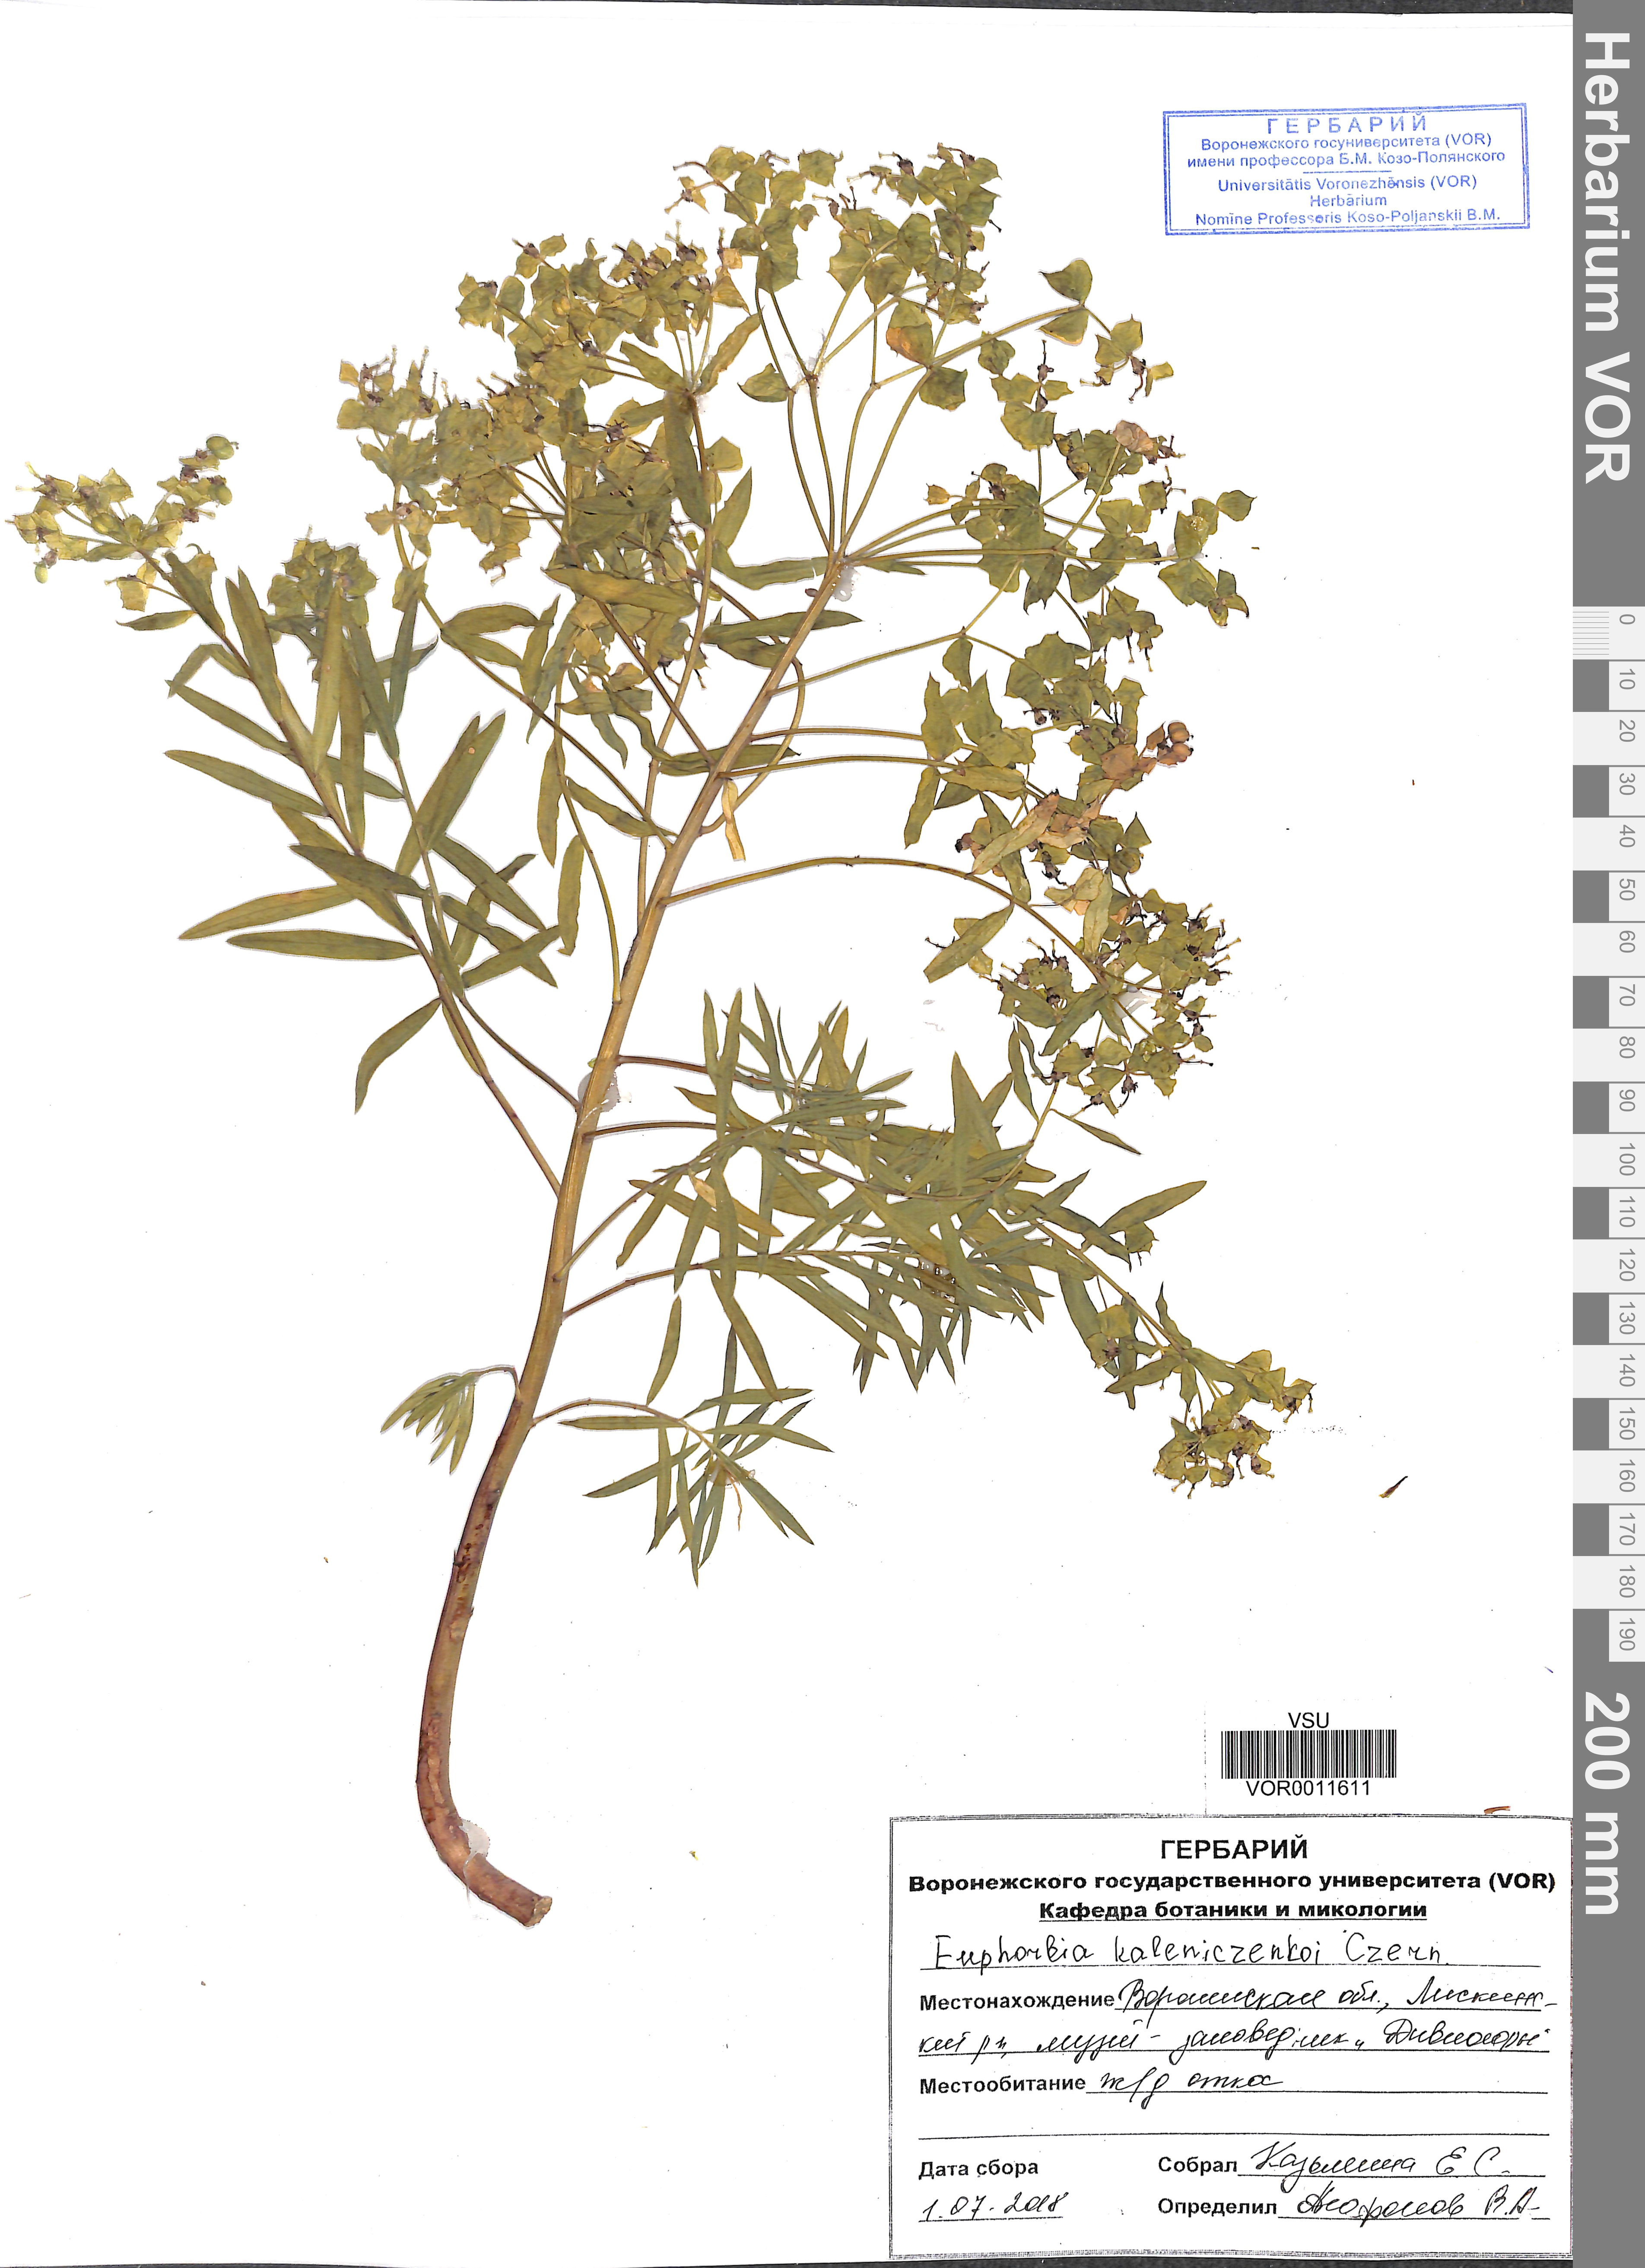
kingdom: Plantae
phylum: Tracheophyta
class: Magnoliopsida
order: Malpighiales
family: Euphorbiaceae
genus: Euphorbia
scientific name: Euphorbia esula
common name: Leafy spurge
